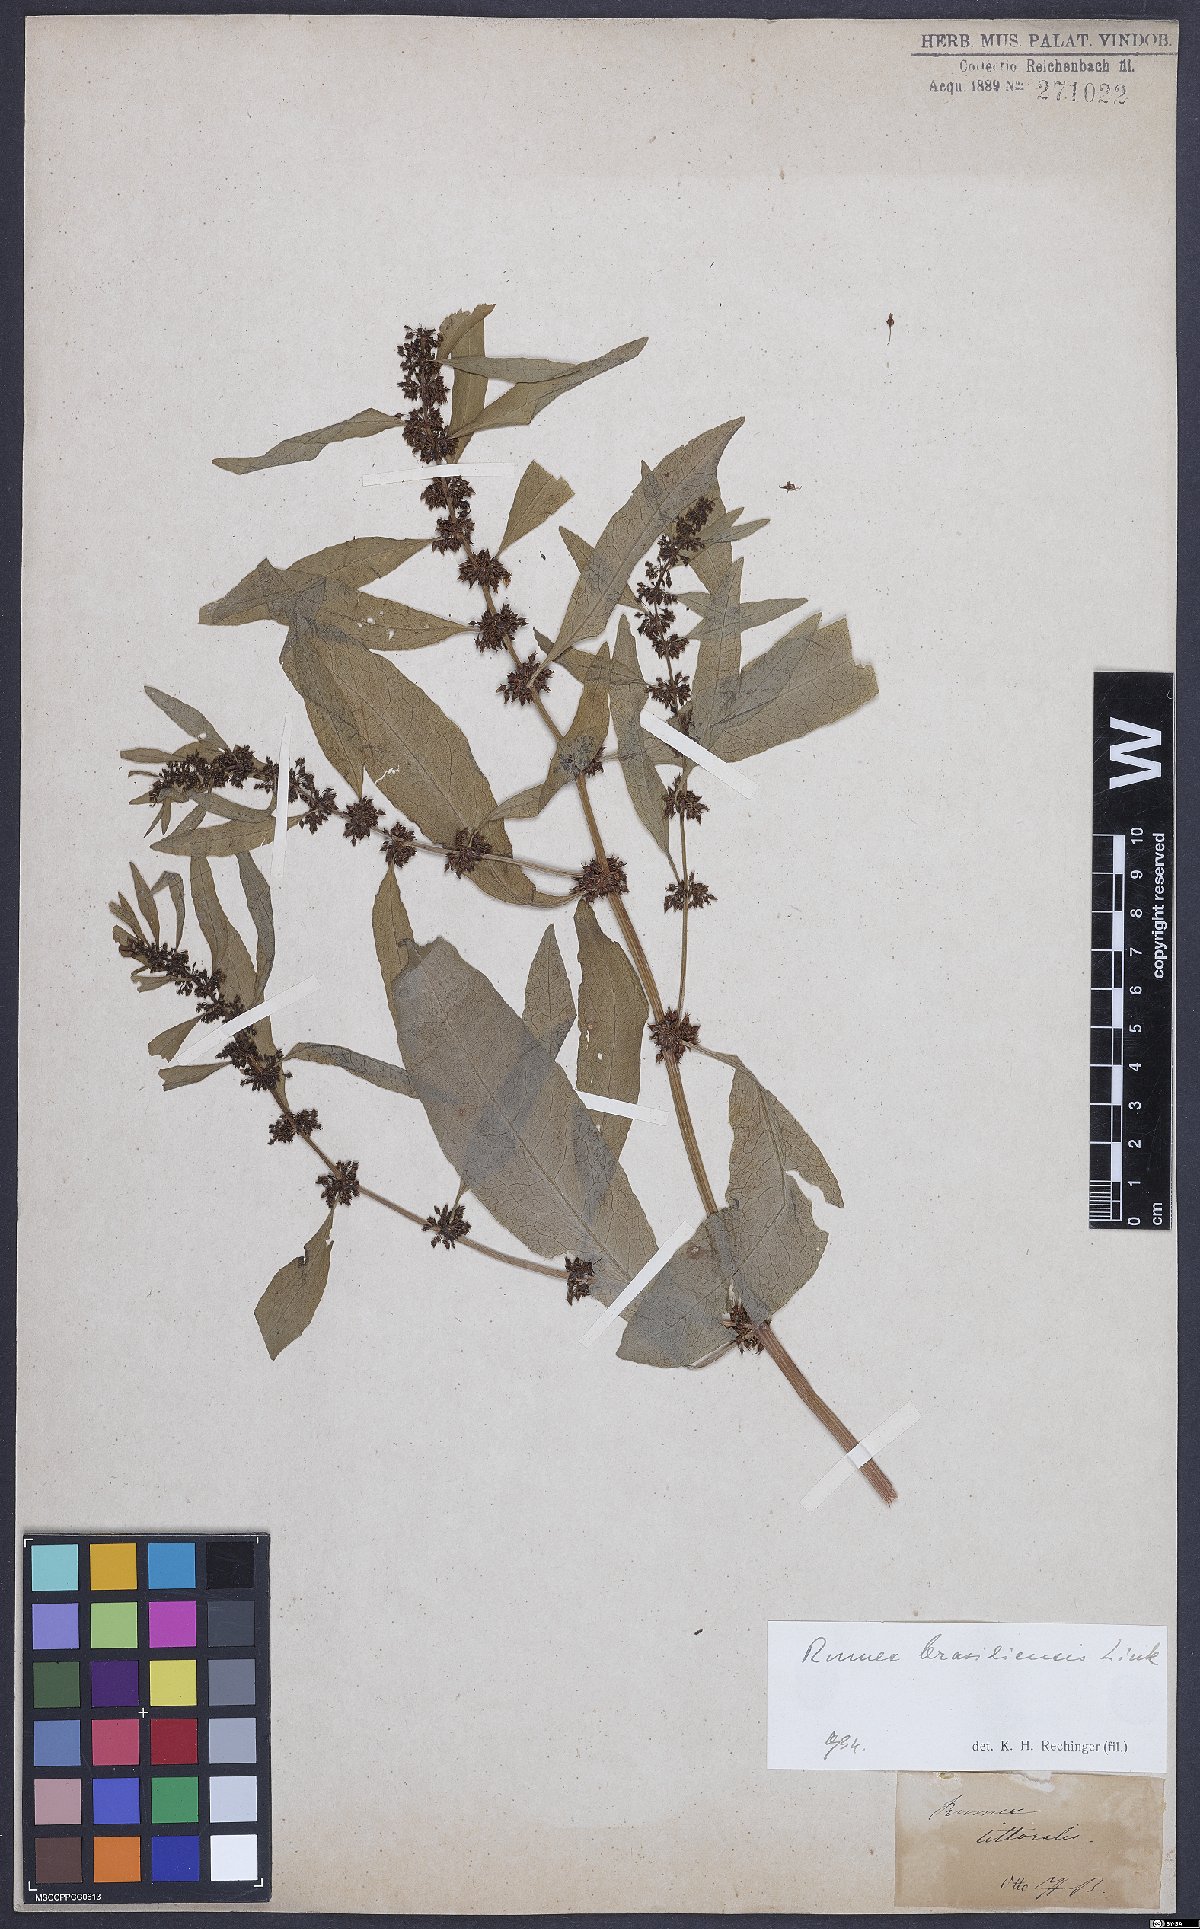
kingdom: Plantae
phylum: Tracheophyta
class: Magnoliopsida
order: Caryophyllales
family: Polygonaceae
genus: Rumex
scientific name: Rumex
